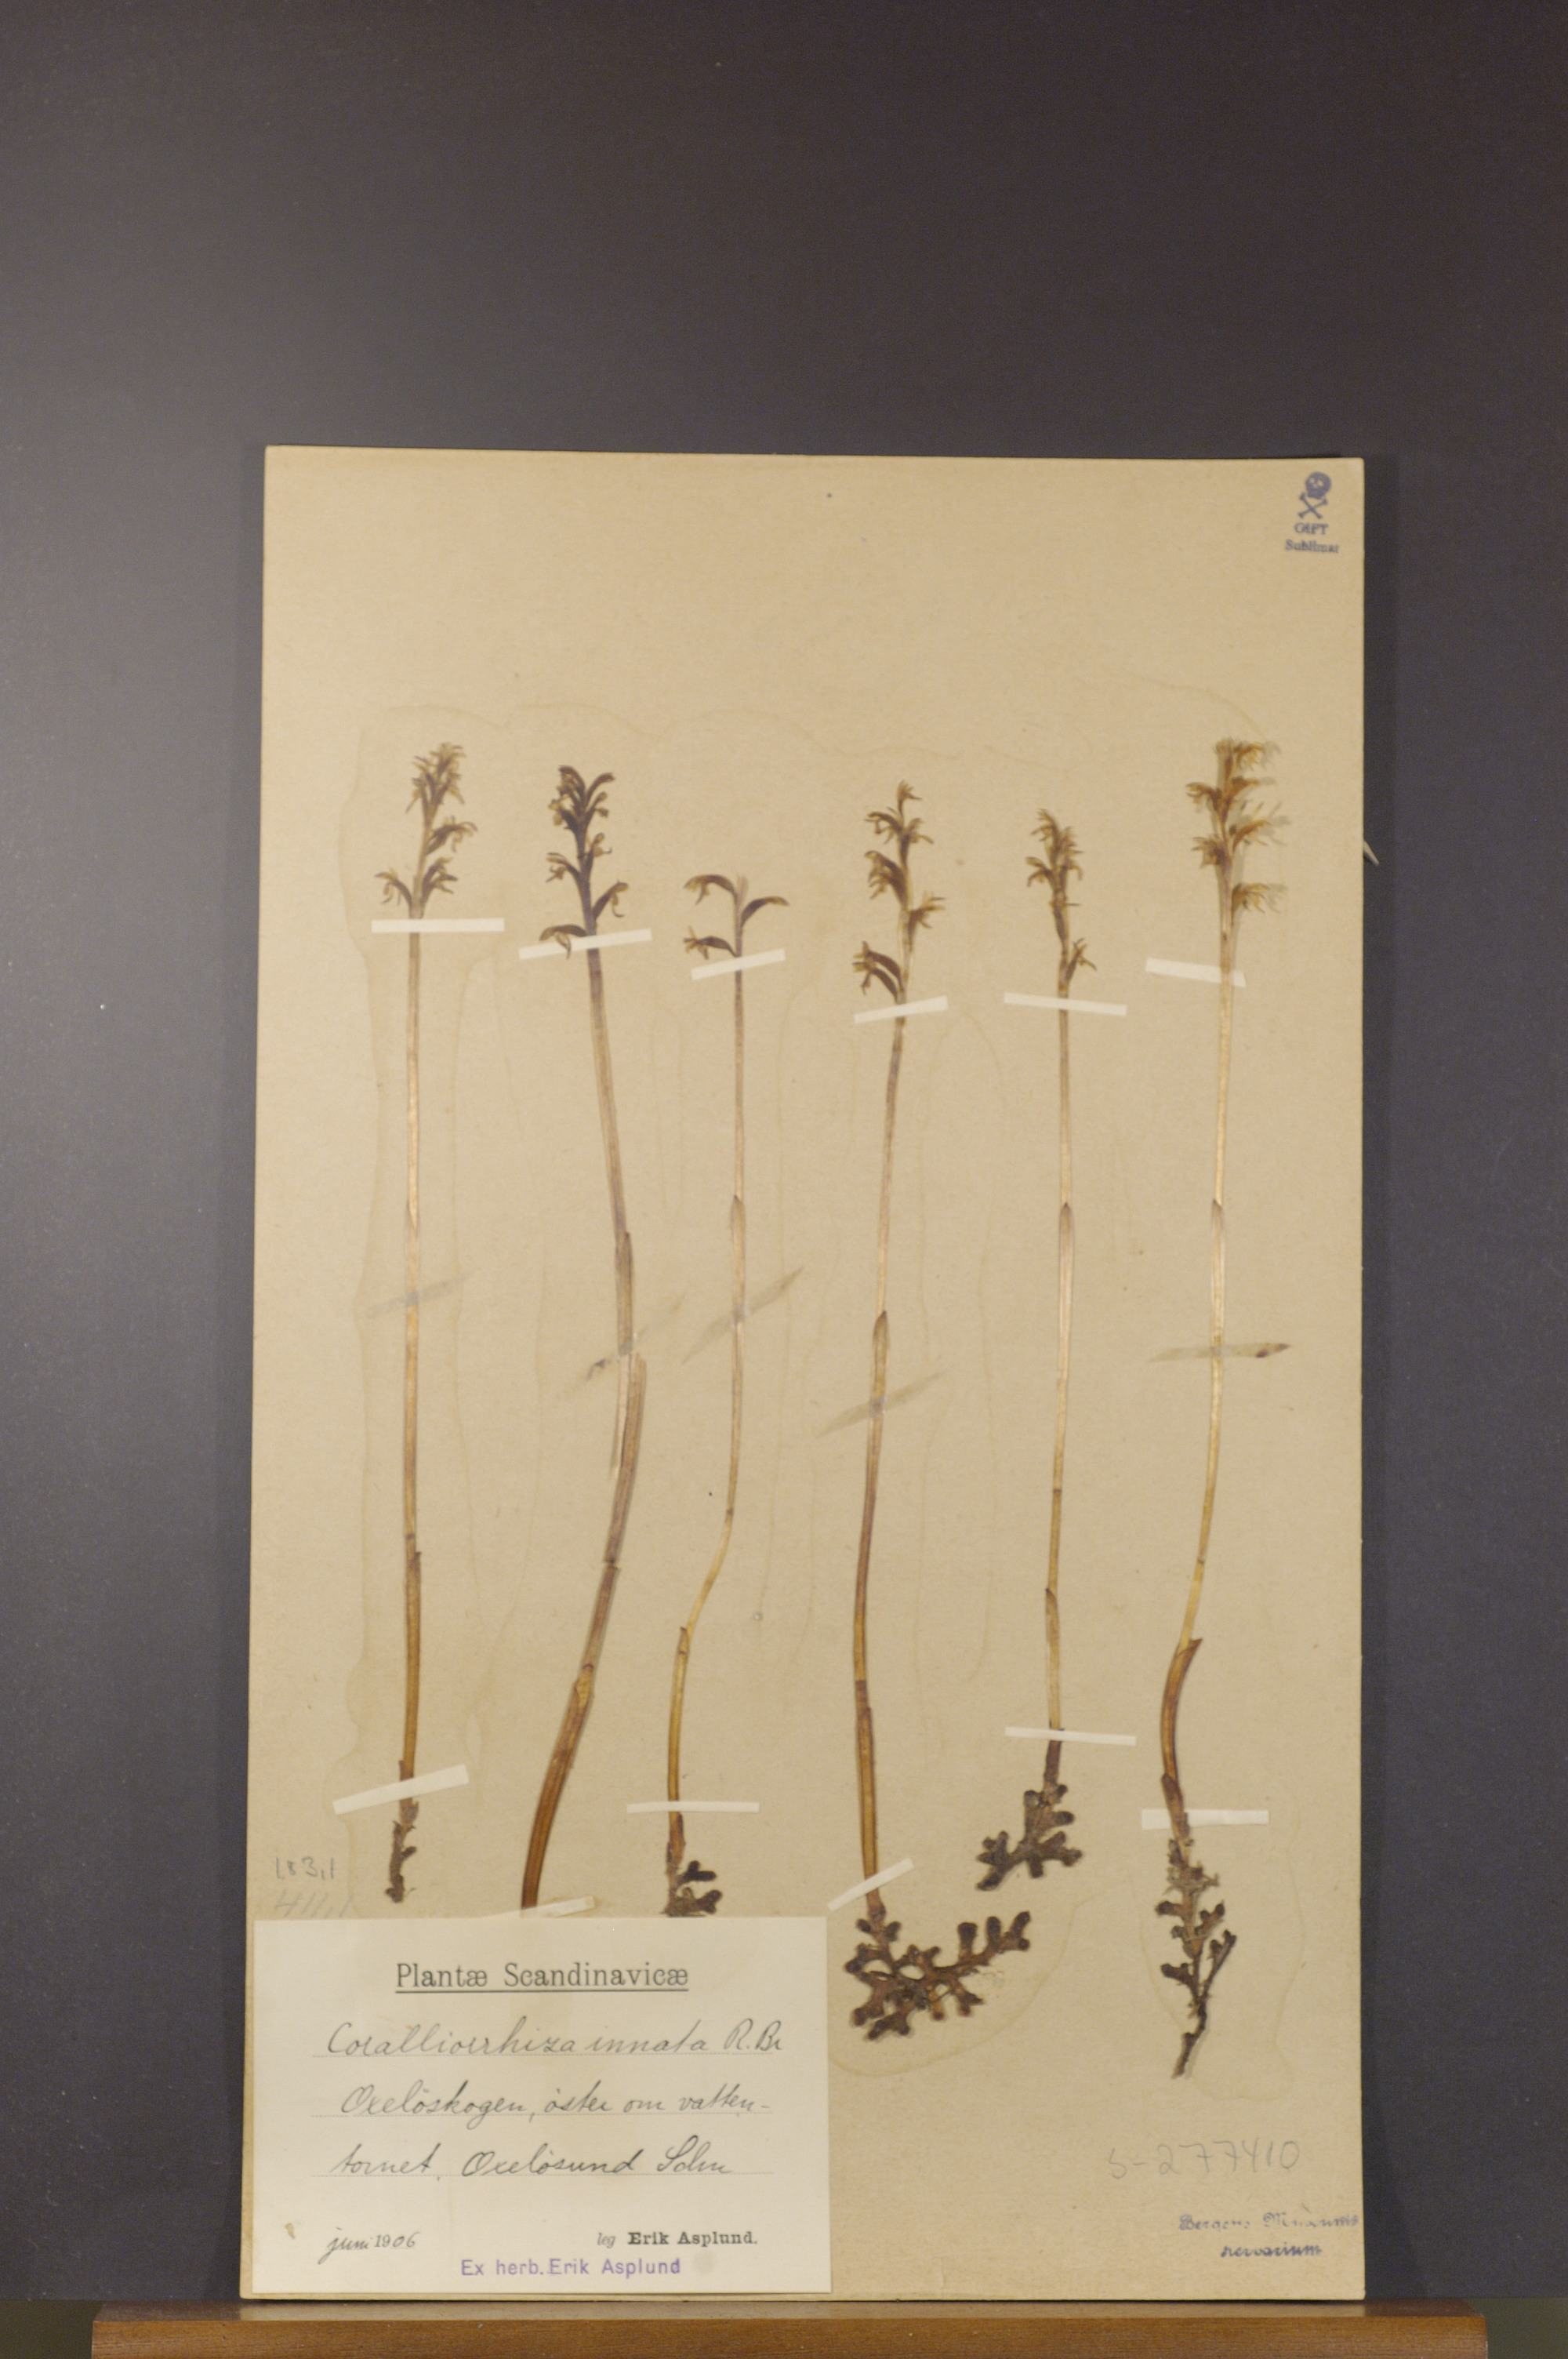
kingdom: Plantae
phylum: Tracheophyta
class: Liliopsida
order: Asparagales
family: Orchidaceae
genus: Corallorhiza
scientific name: Corallorhiza trifida
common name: Yellow coralroot
